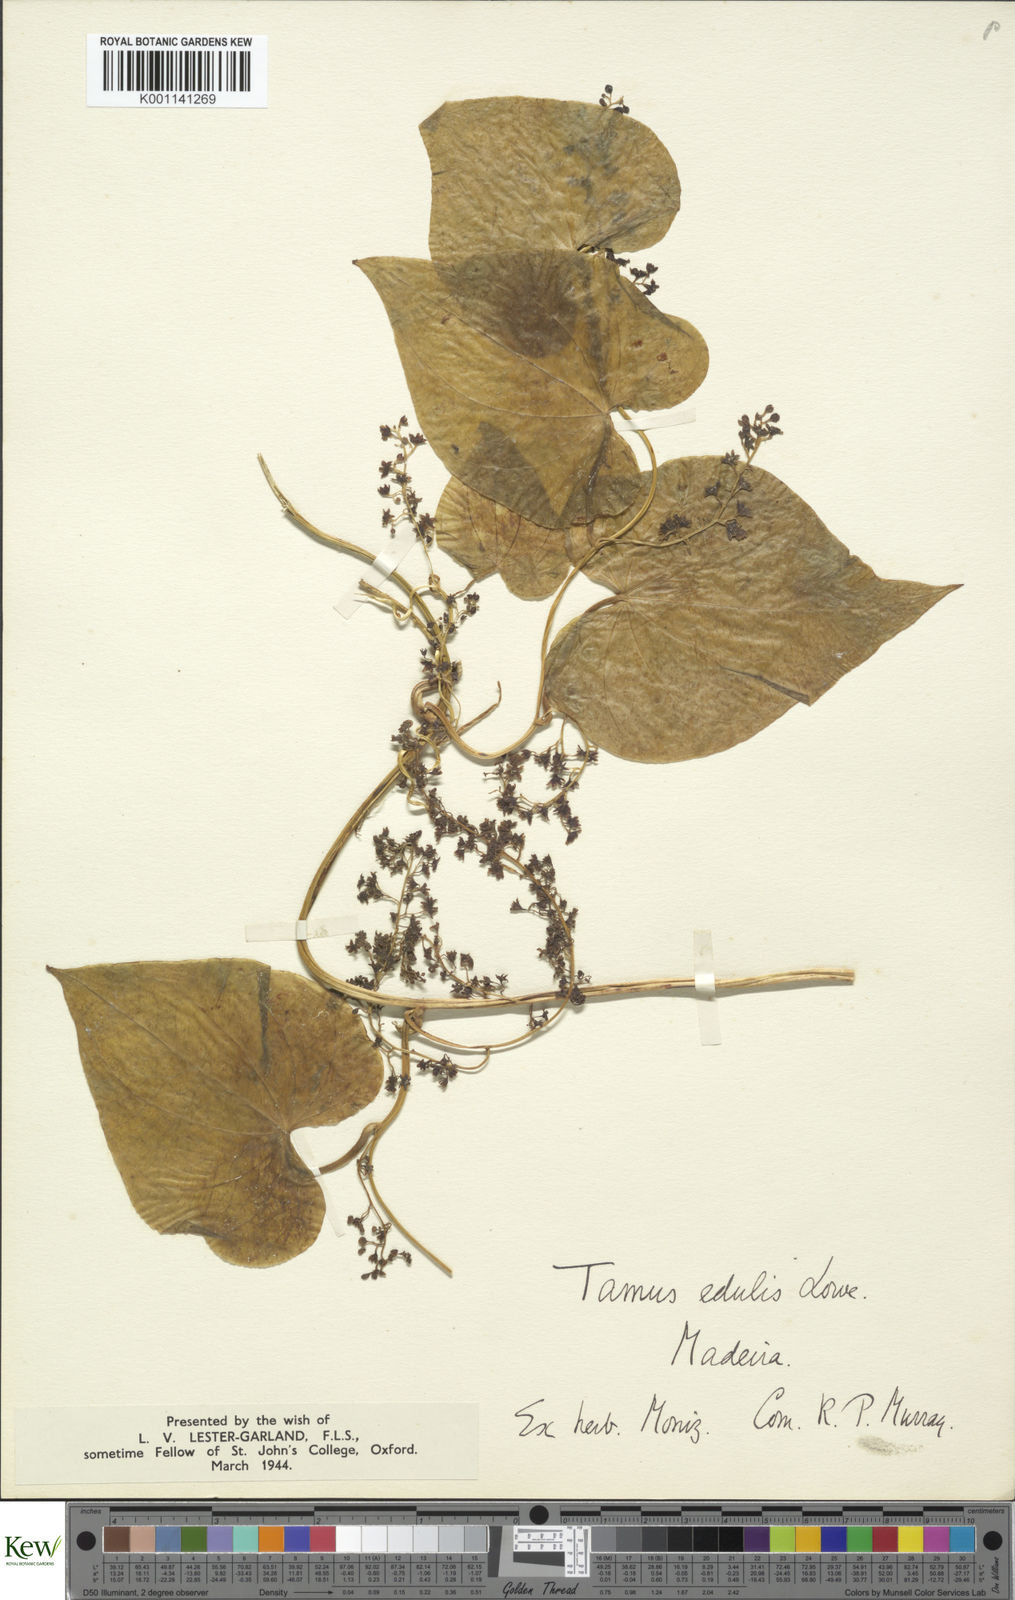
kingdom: Plantae
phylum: Tracheophyta
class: Liliopsida
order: Dioscoreales
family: Dioscoreaceae
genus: Dioscorea
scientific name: Dioscorea
